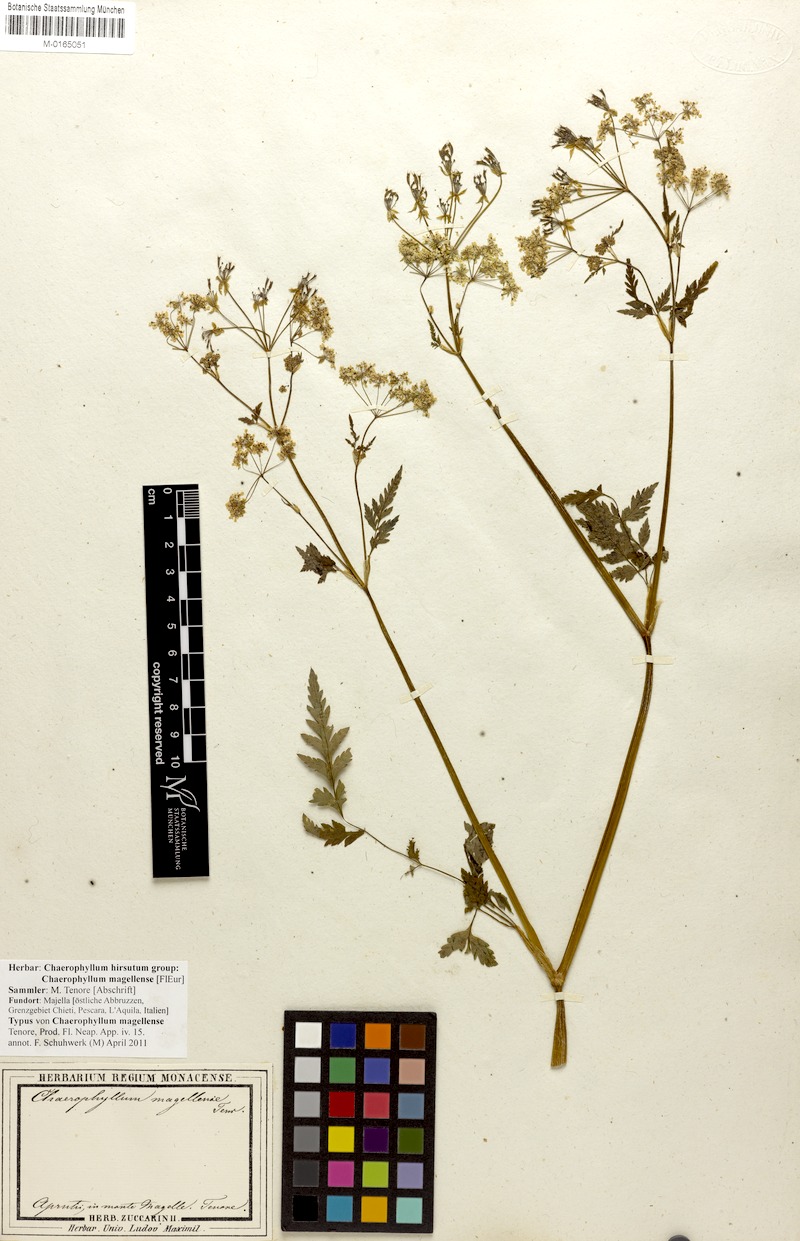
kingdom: Plantae
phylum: Tracheophyta
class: Magnoliopsida
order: Apiales
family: Apiaceae
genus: Chaerophyllum
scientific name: Chaerophyllum hirsutum
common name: Hairy chervil
